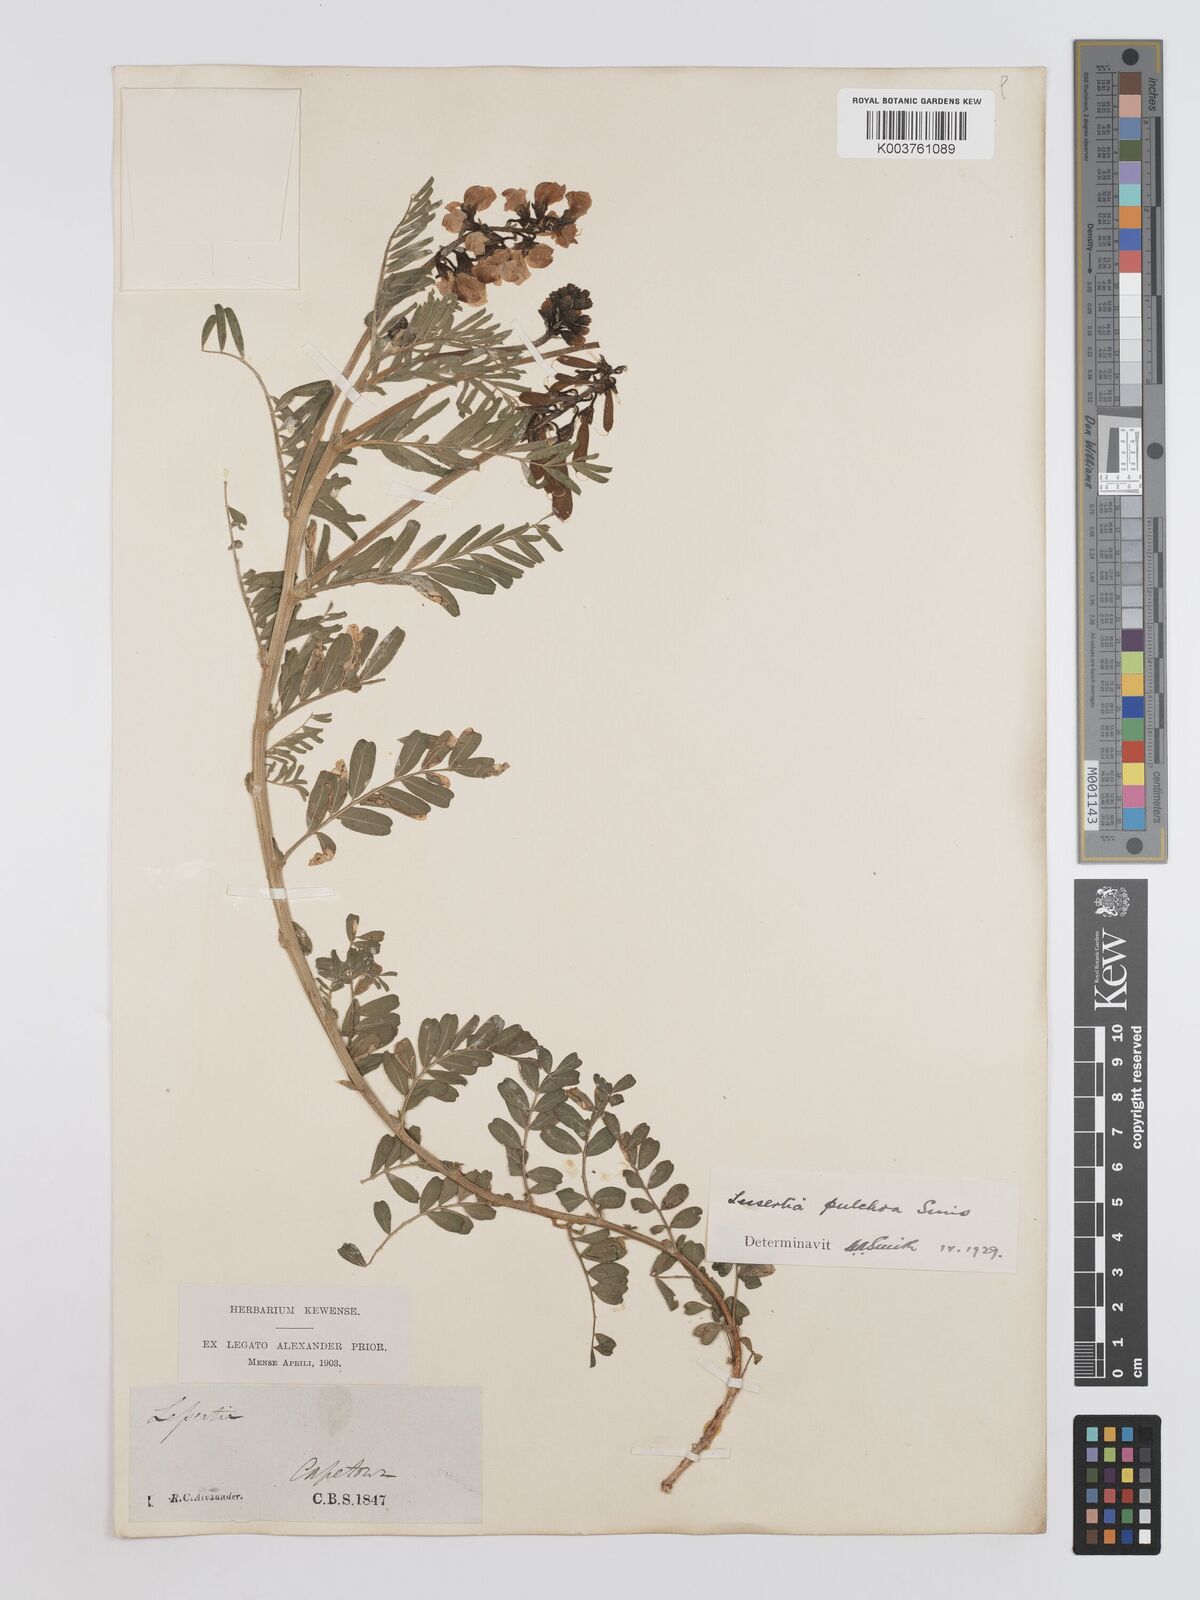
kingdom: Plantae
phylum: Tracheophyta
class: Magnoliopsida
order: Fabales
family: Fabaceae
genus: Lessertia
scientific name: Lessertia capensis
